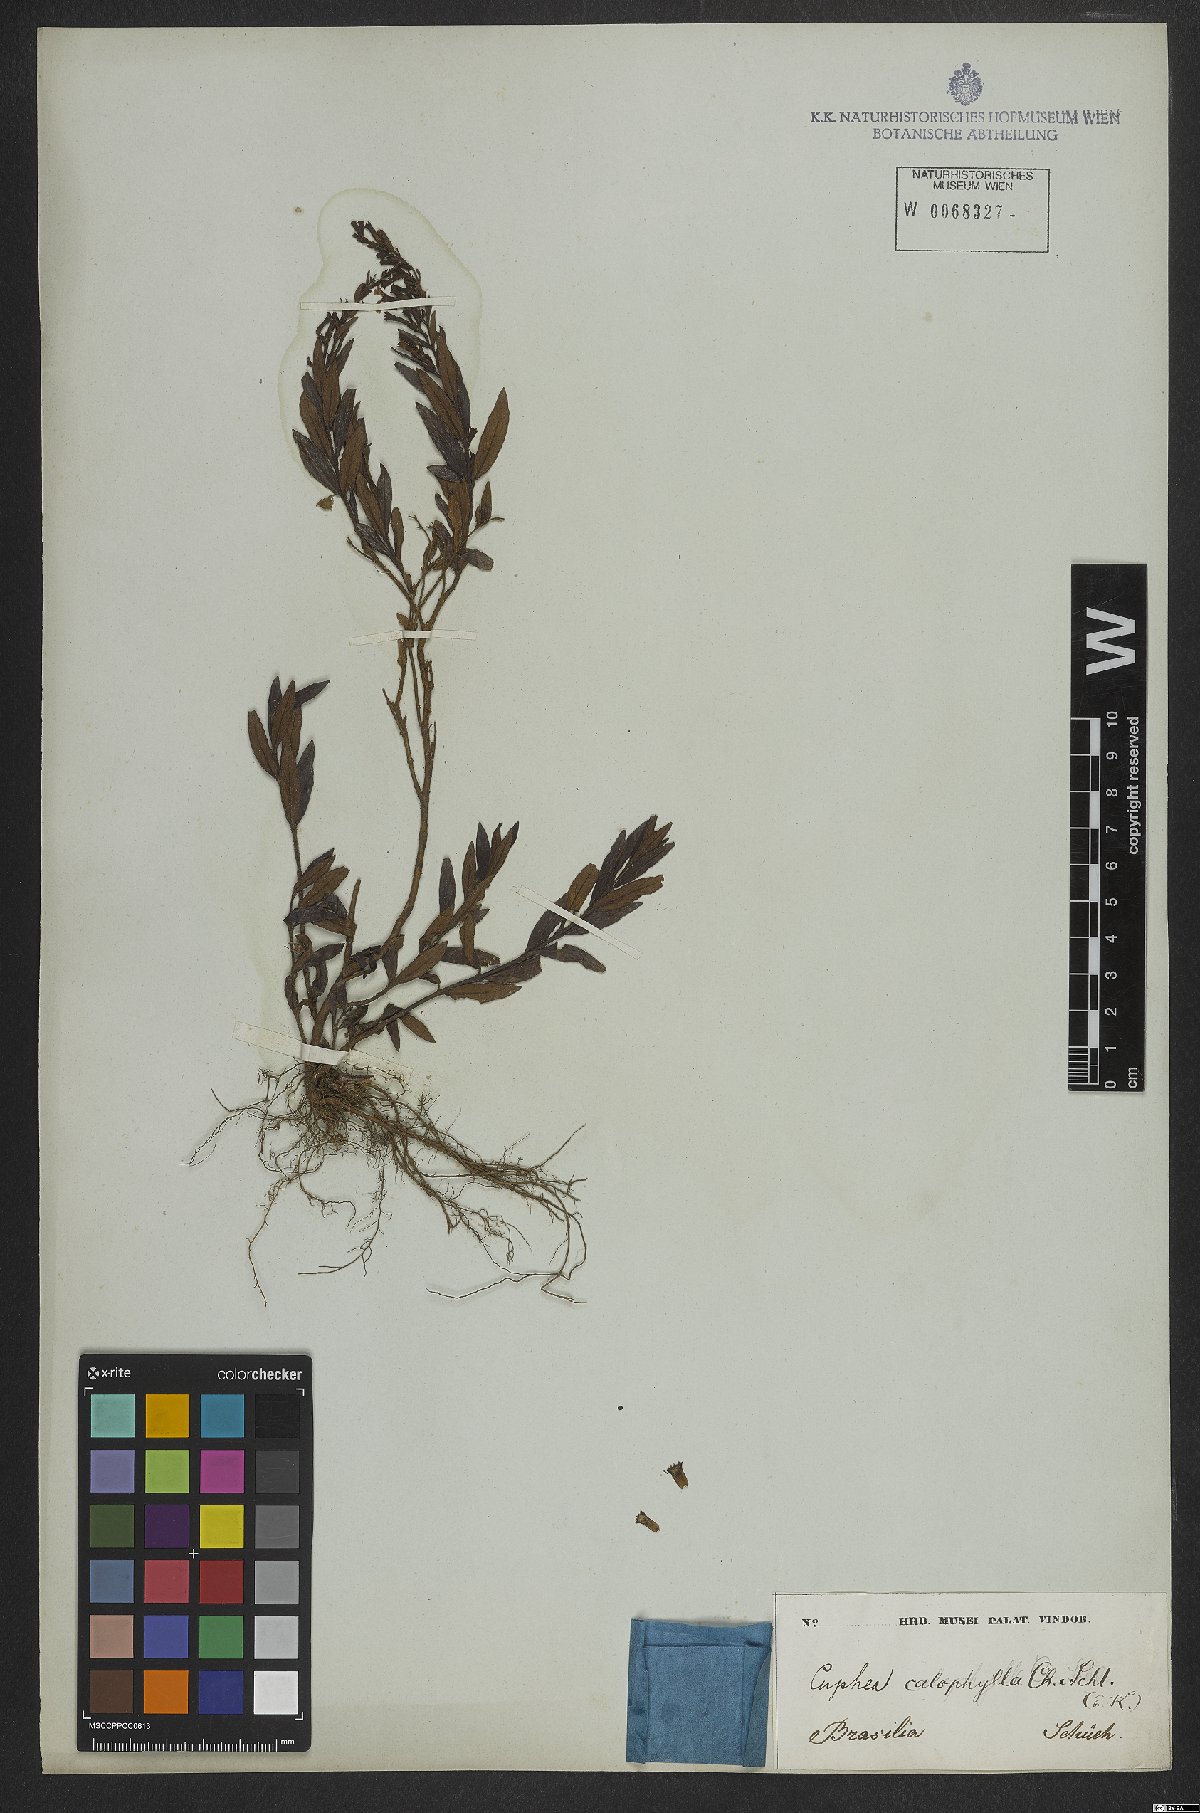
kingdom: Plantae
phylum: Tracheophyta
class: Magnoliopsida
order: Myrtales
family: Lythraceae
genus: Cuphea
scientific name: Cuphea calophylla
